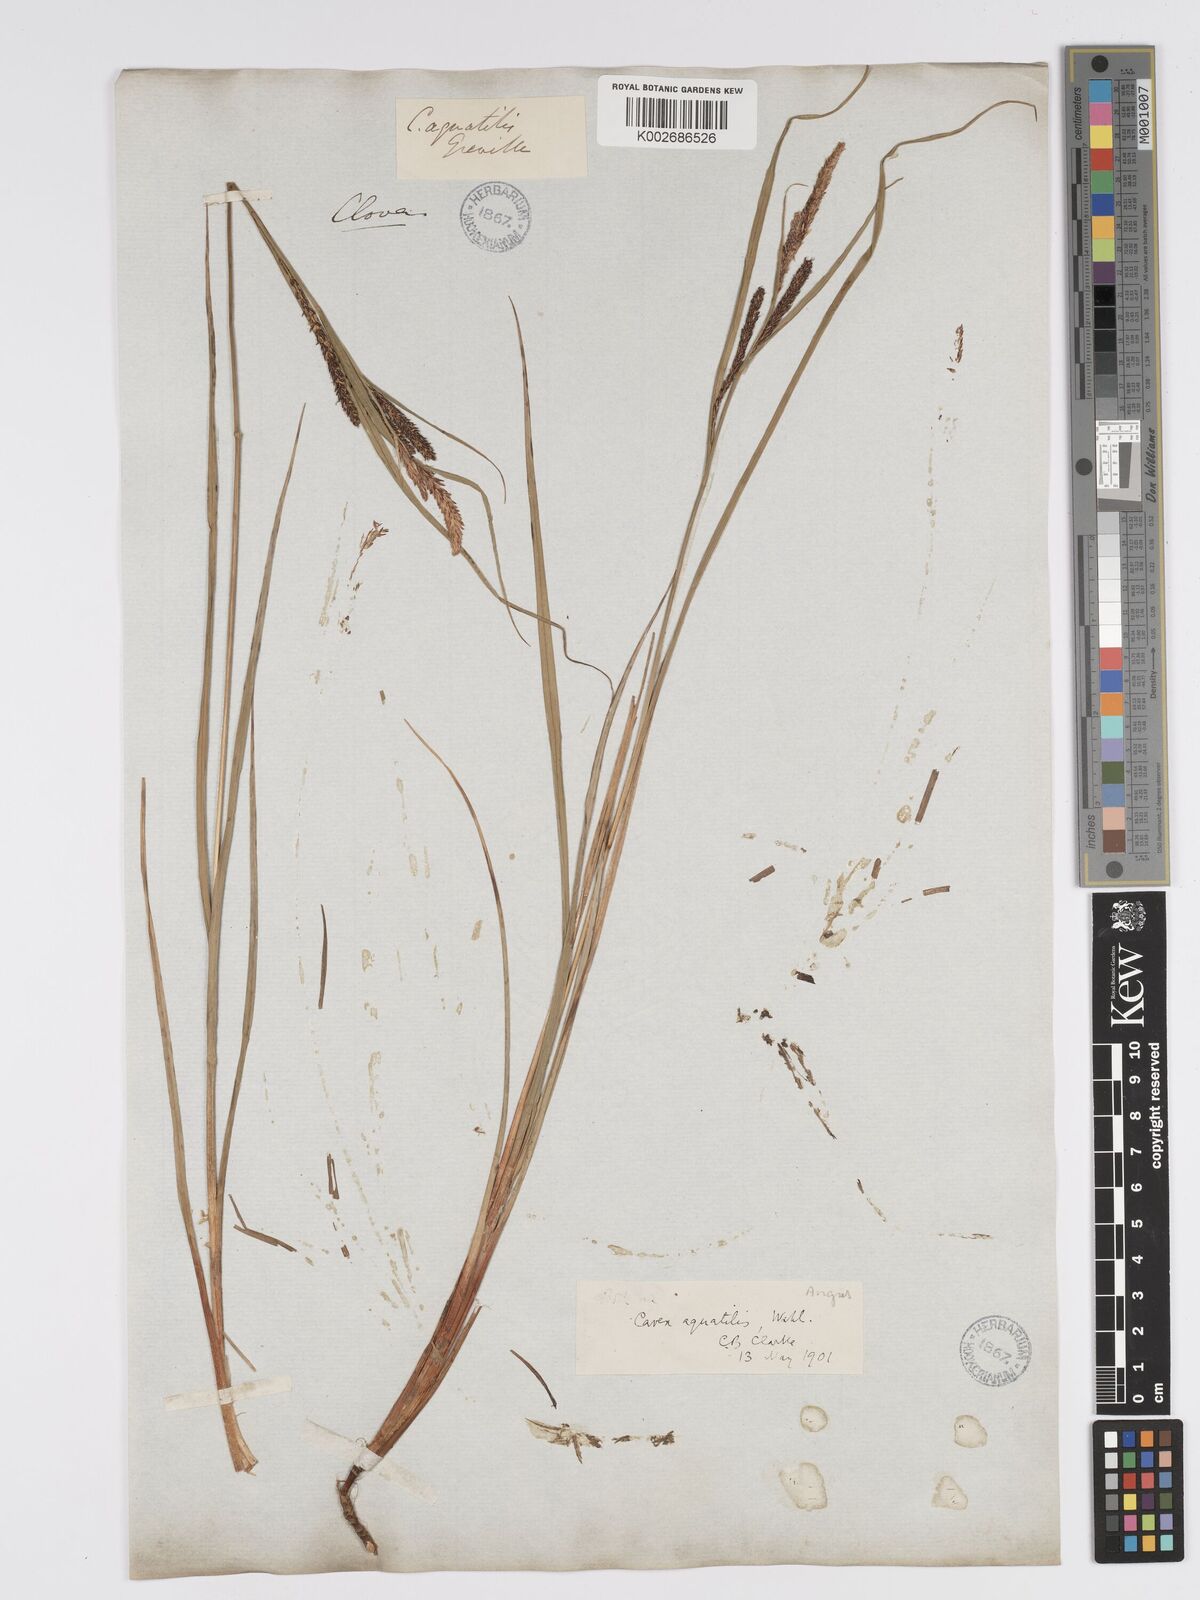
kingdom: Plantae
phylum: Tracheophyta
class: Liliopsida
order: Poales
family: Cyperaceae
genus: Carex
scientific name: Carex aquatilis
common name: Water sedge
